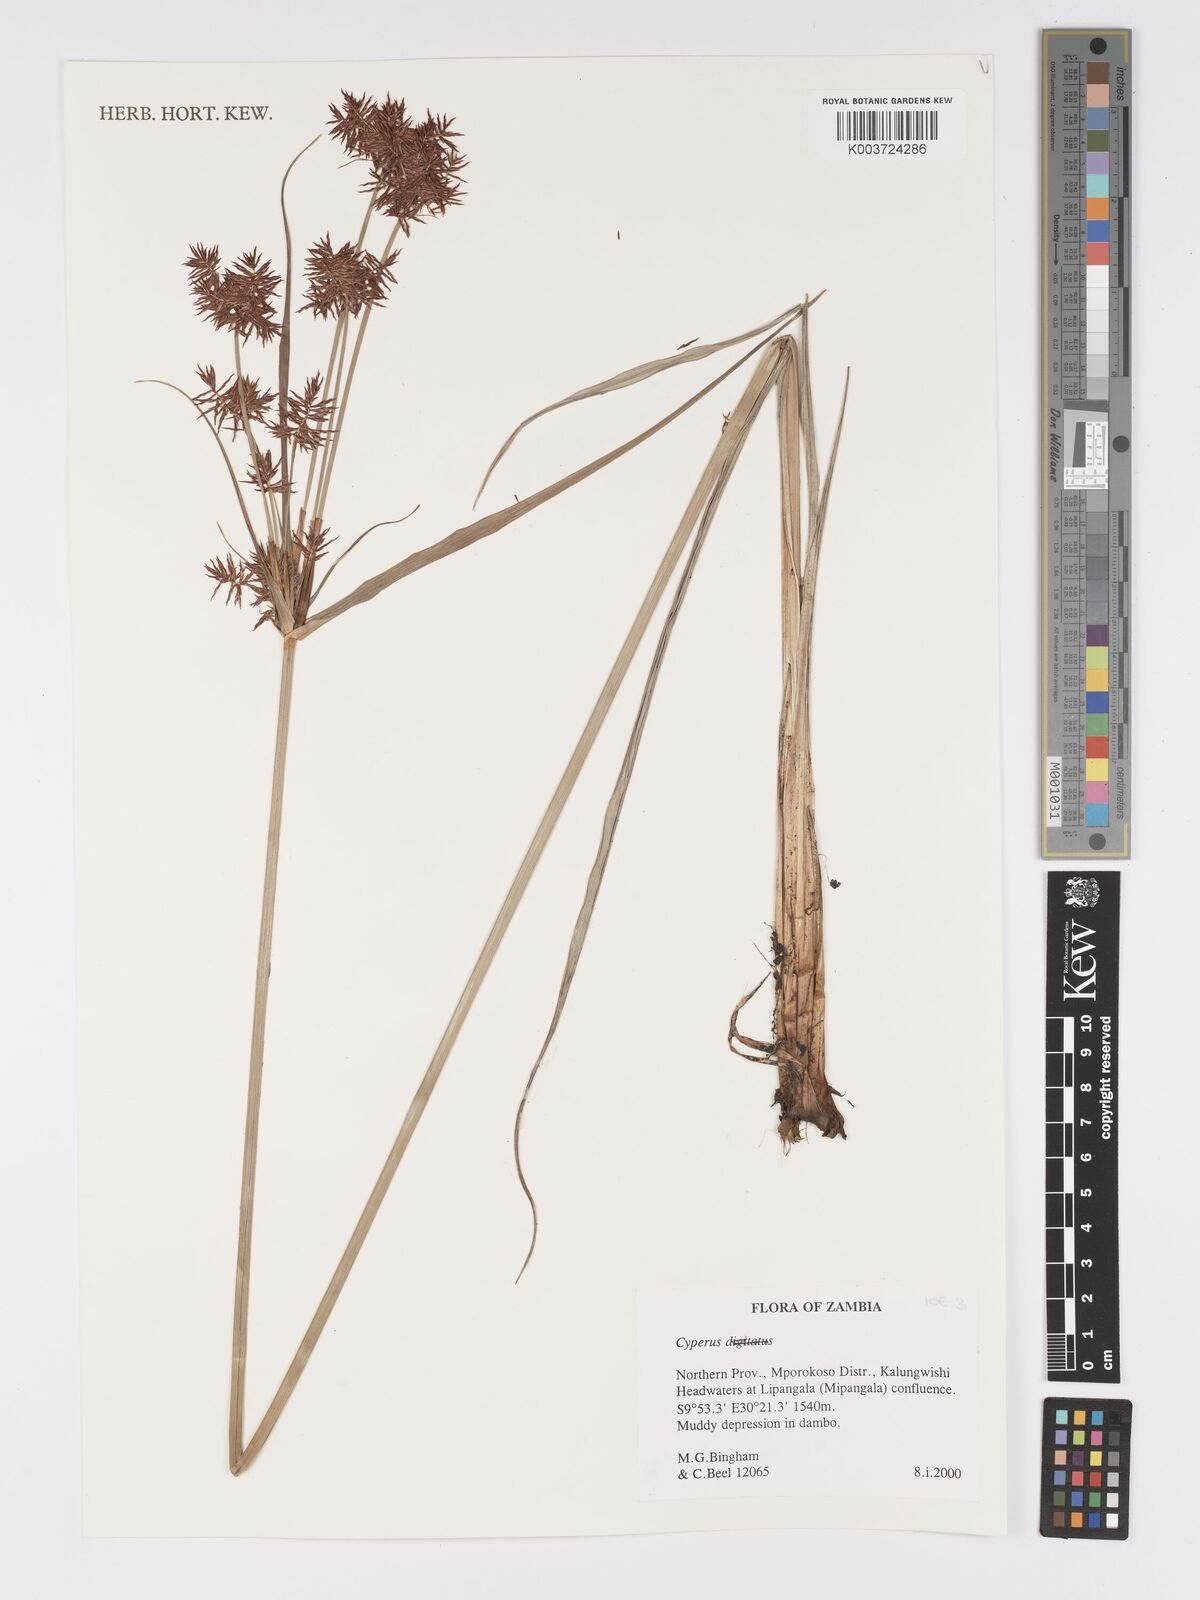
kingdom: Plantae
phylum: Tracheophyta
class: Liliopsida
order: Poales
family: Cyperaceae
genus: Cyperus
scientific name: Cyperus
